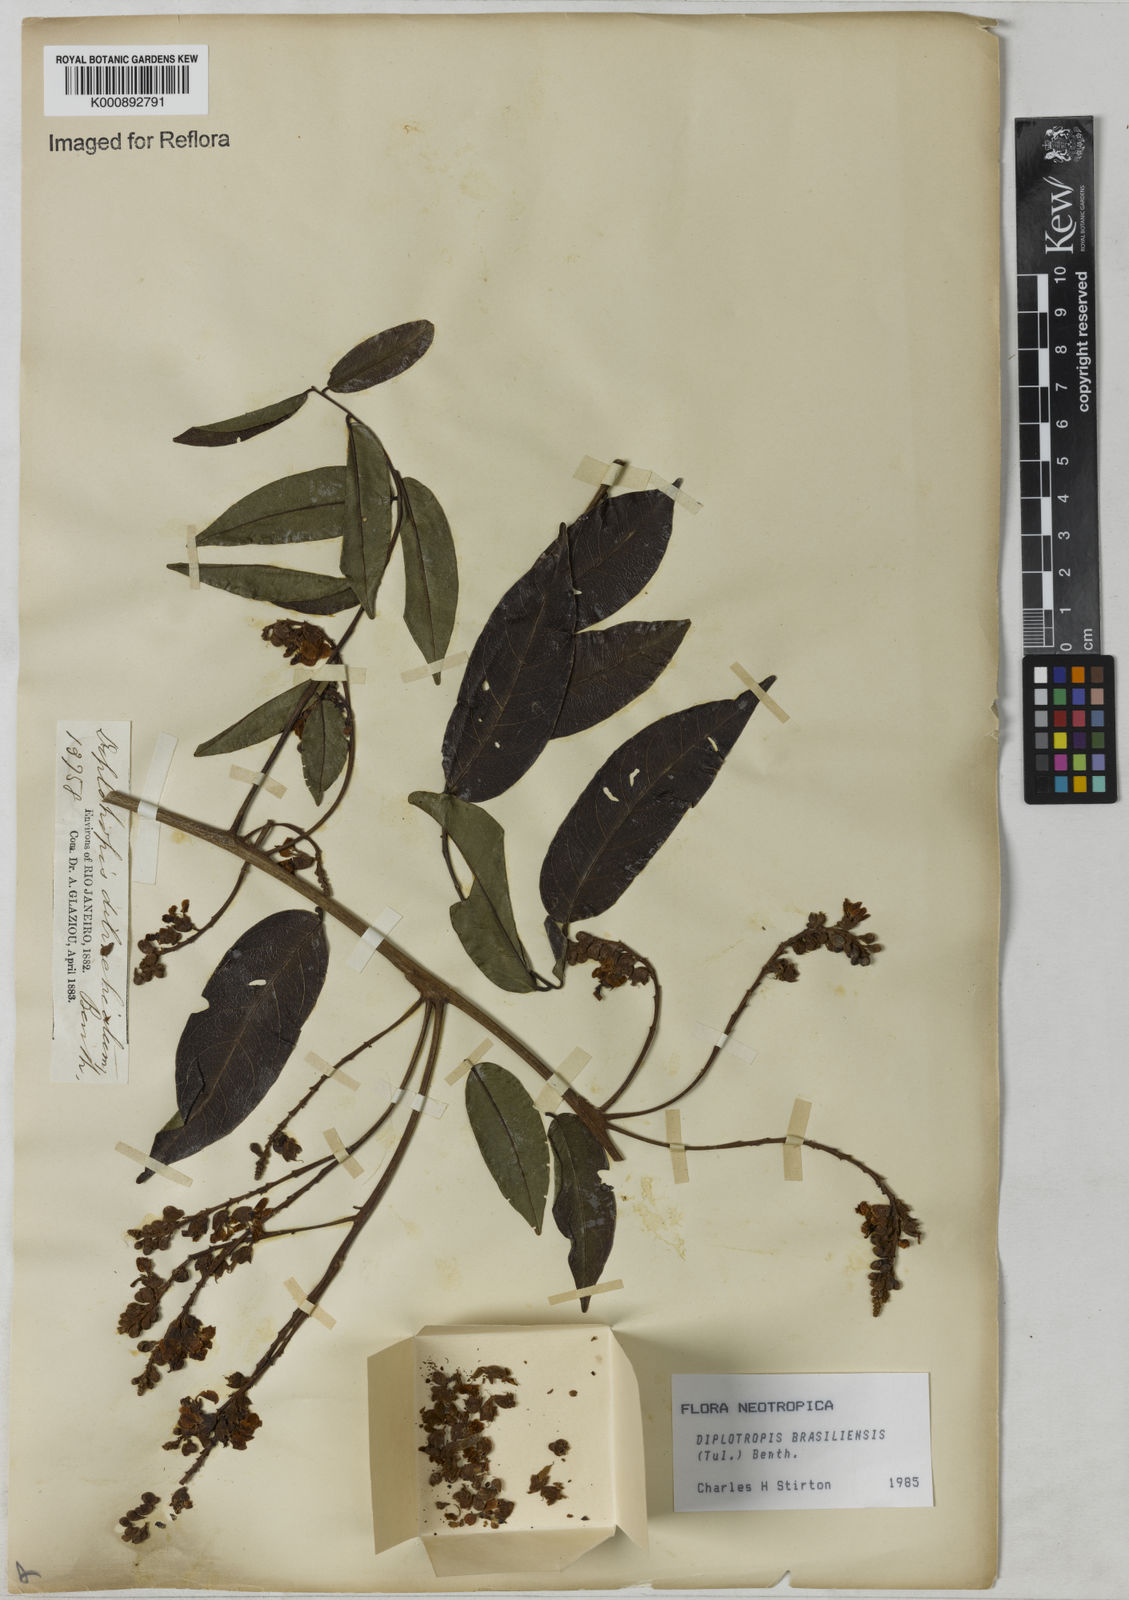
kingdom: Plantae
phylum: Tracheophyta
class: Magnoliopsida
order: Fabales
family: Fabaceae
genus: Diplotropis
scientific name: Diplotropis brasiliensis
